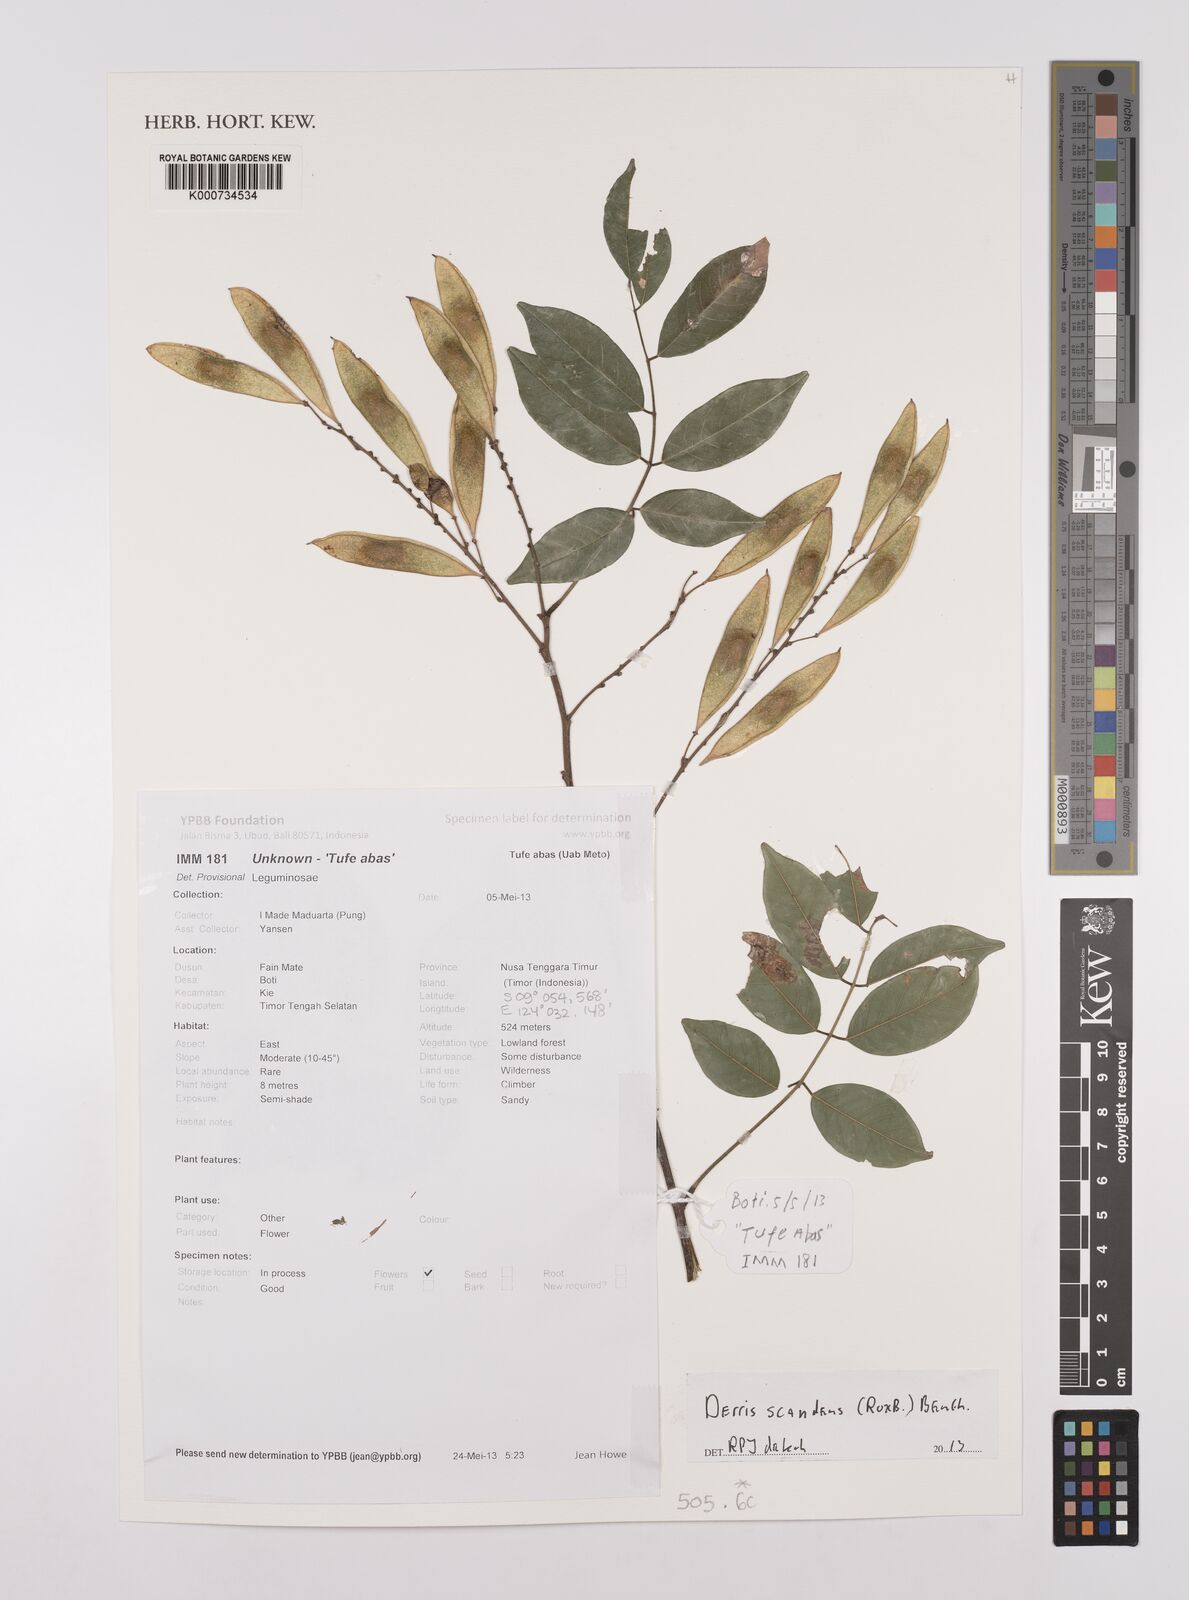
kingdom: Plantae
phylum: Tracheophyta
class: Magnoliopsida
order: Fabales
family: Fabaceae
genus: Brachypterum
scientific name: Brachypterum scandens
